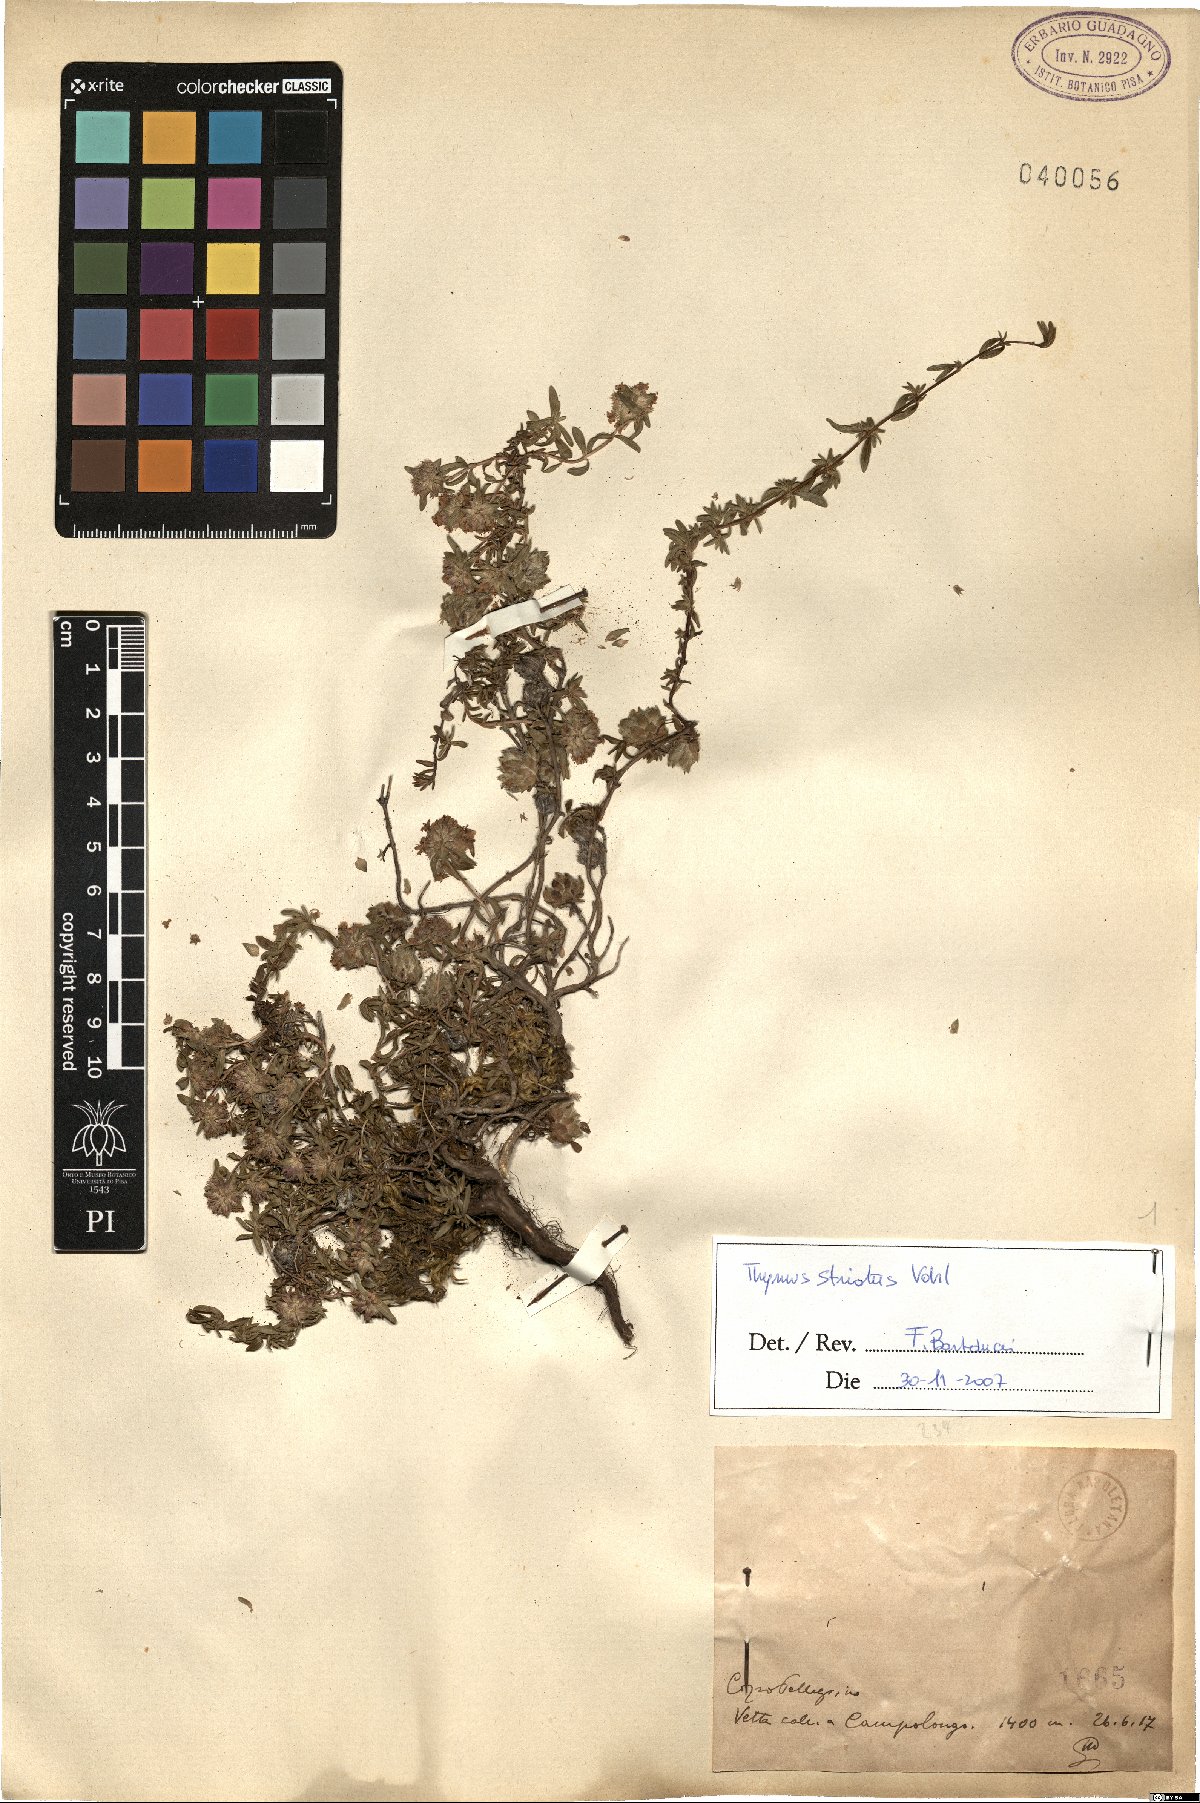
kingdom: Plantae
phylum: Tracheophyta
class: Magnoliopsida
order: Lamiales
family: Lamiaceae
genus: Thymus
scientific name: Thymus striatus
